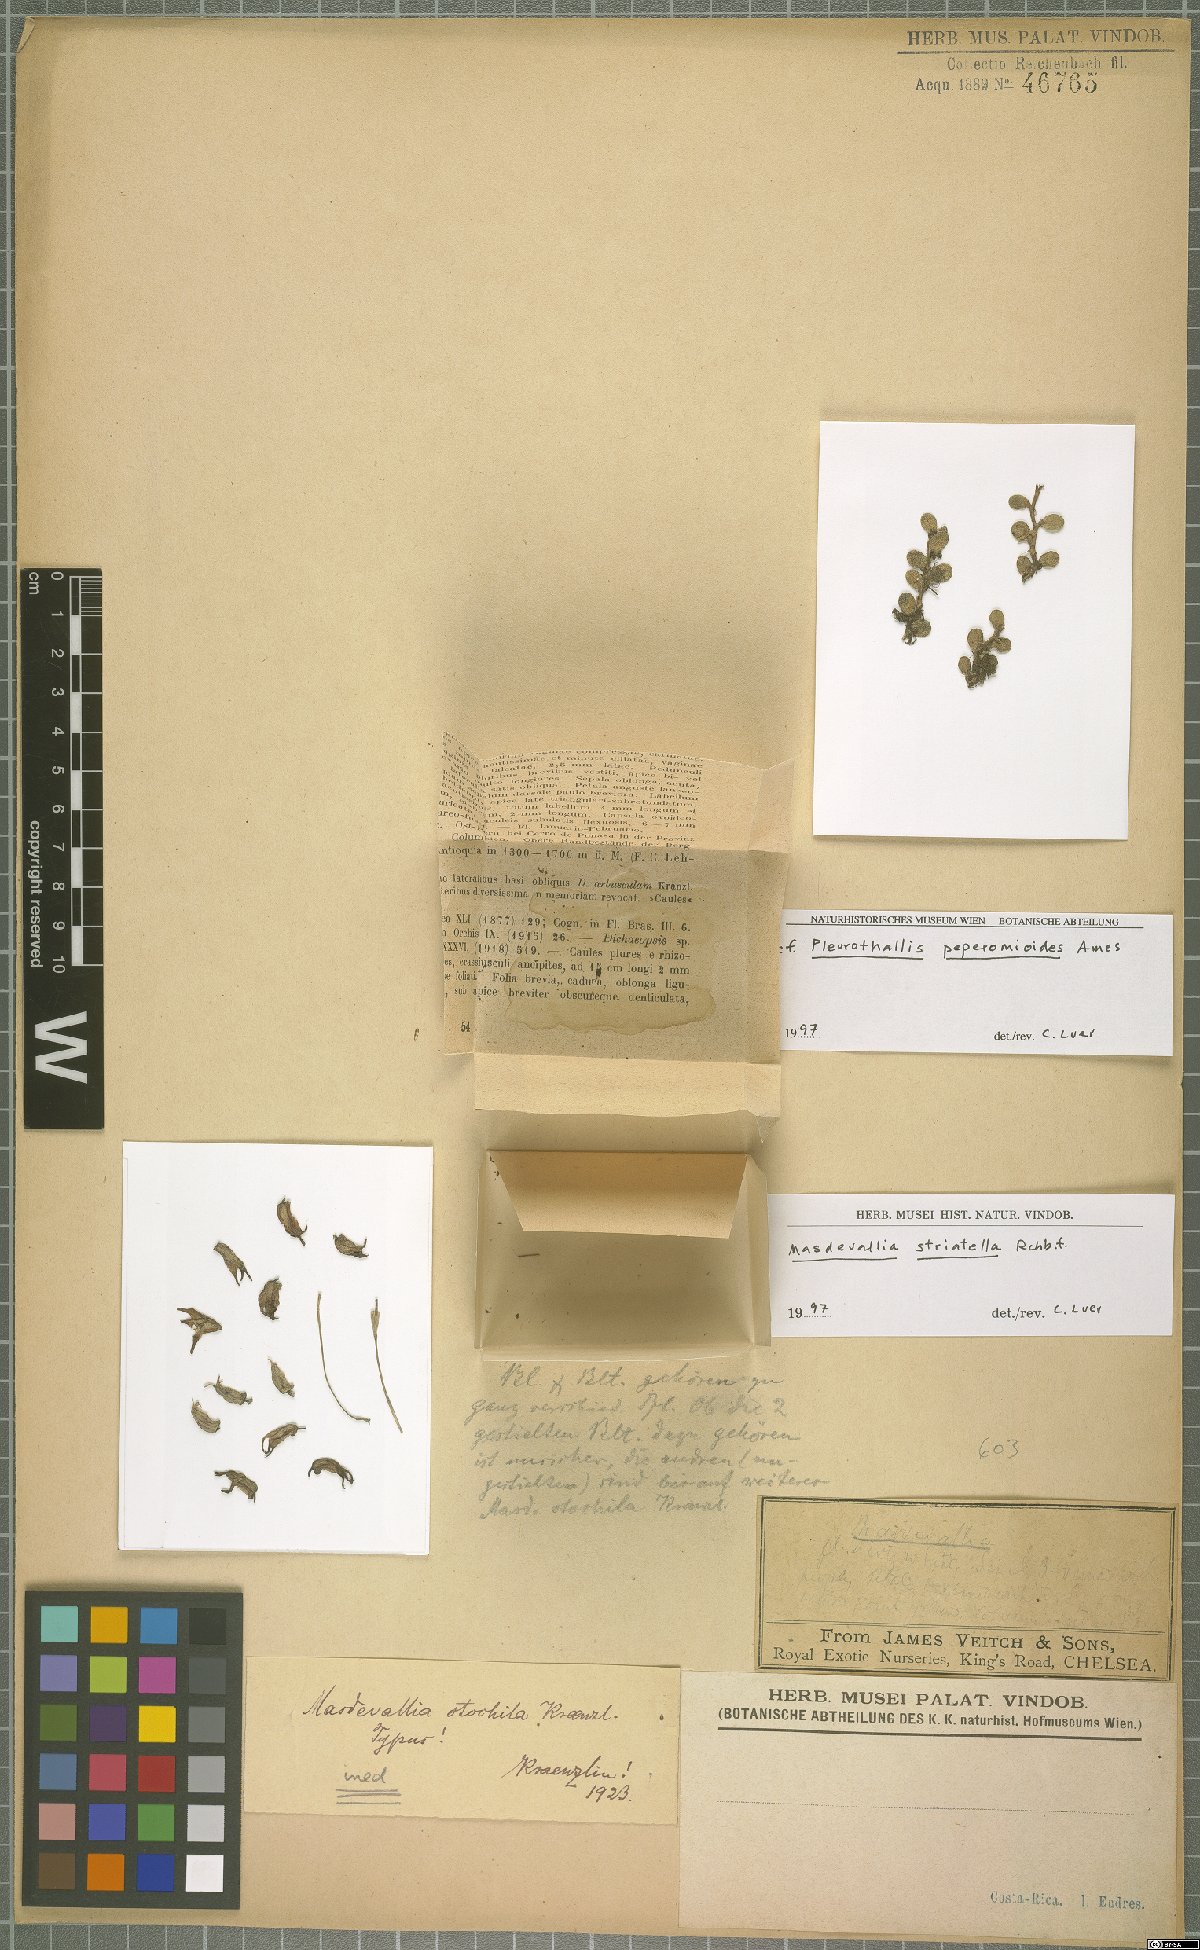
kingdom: Plantae
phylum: Tracheophyta
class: Liliopsida
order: Asparagales
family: Orchidaceae
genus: Masdevallia
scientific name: Masdevallia striatella
